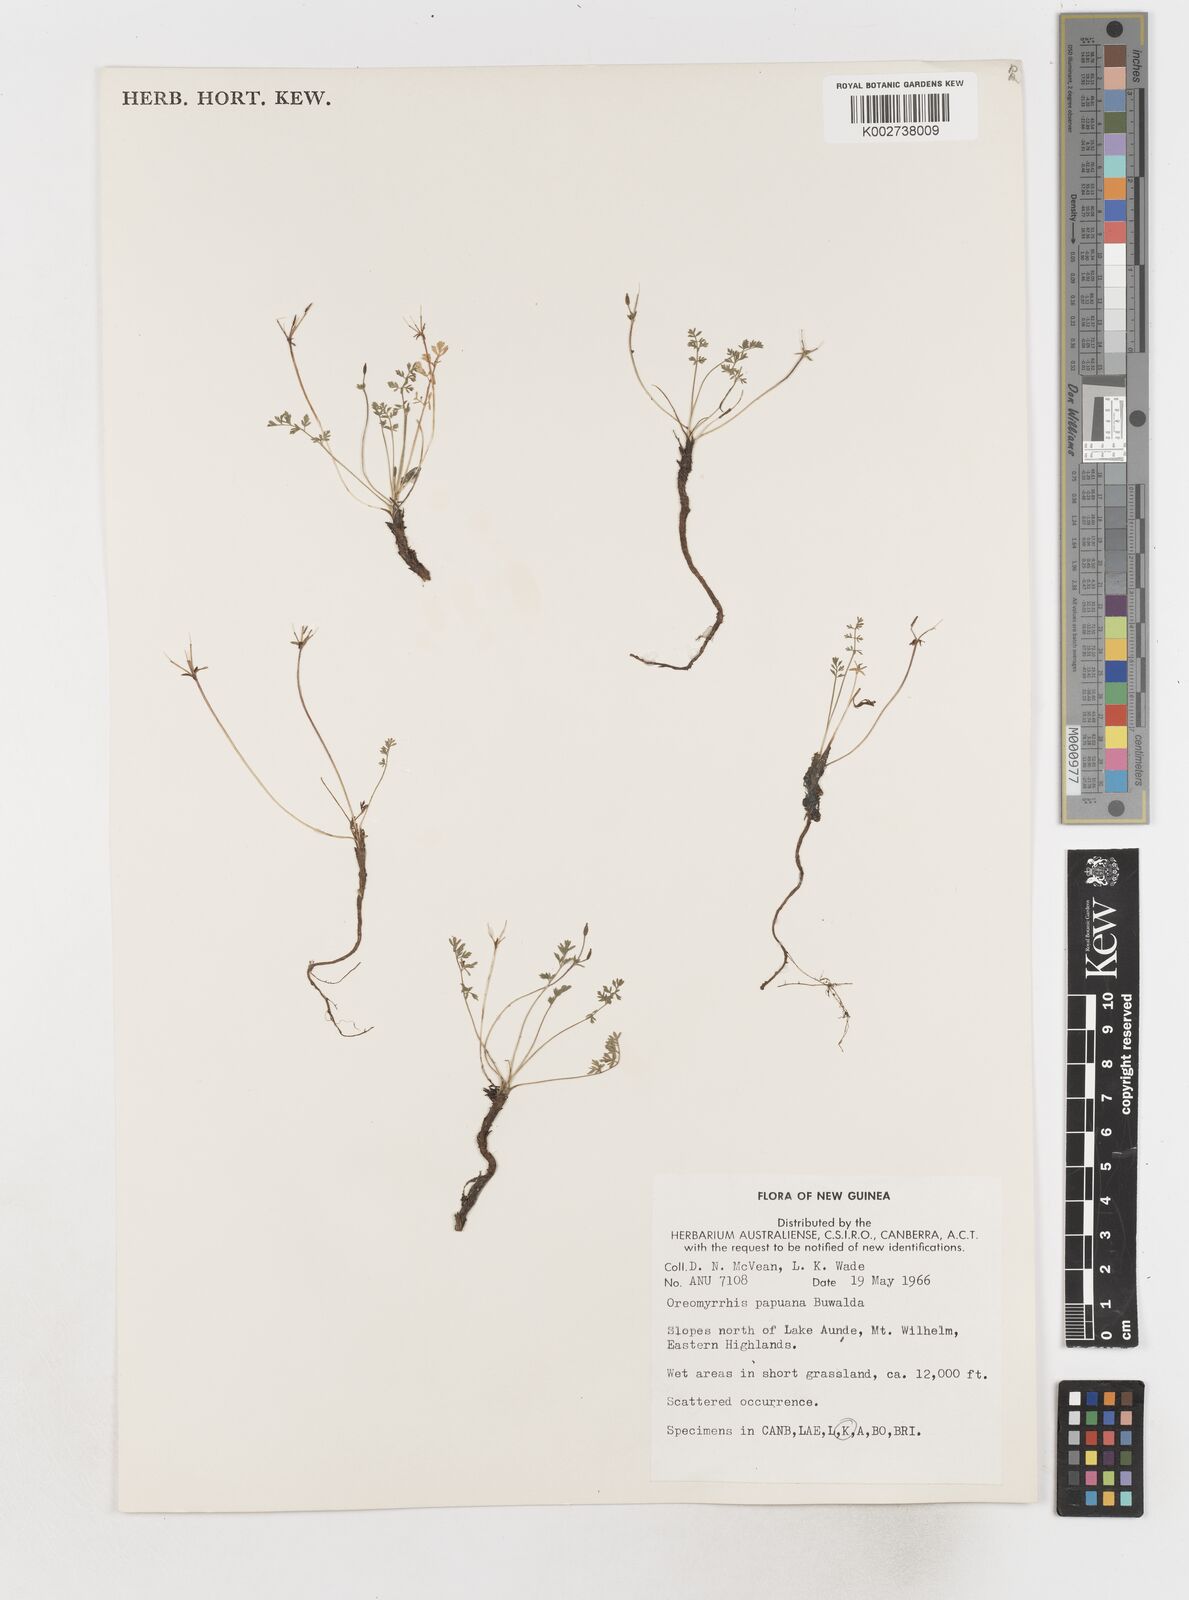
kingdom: Plantae
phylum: Tracheophyta
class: Magnoliopsida
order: Apiales
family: Apiaceae
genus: Chaerophyllum
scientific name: Chaerophyllum papuanum
